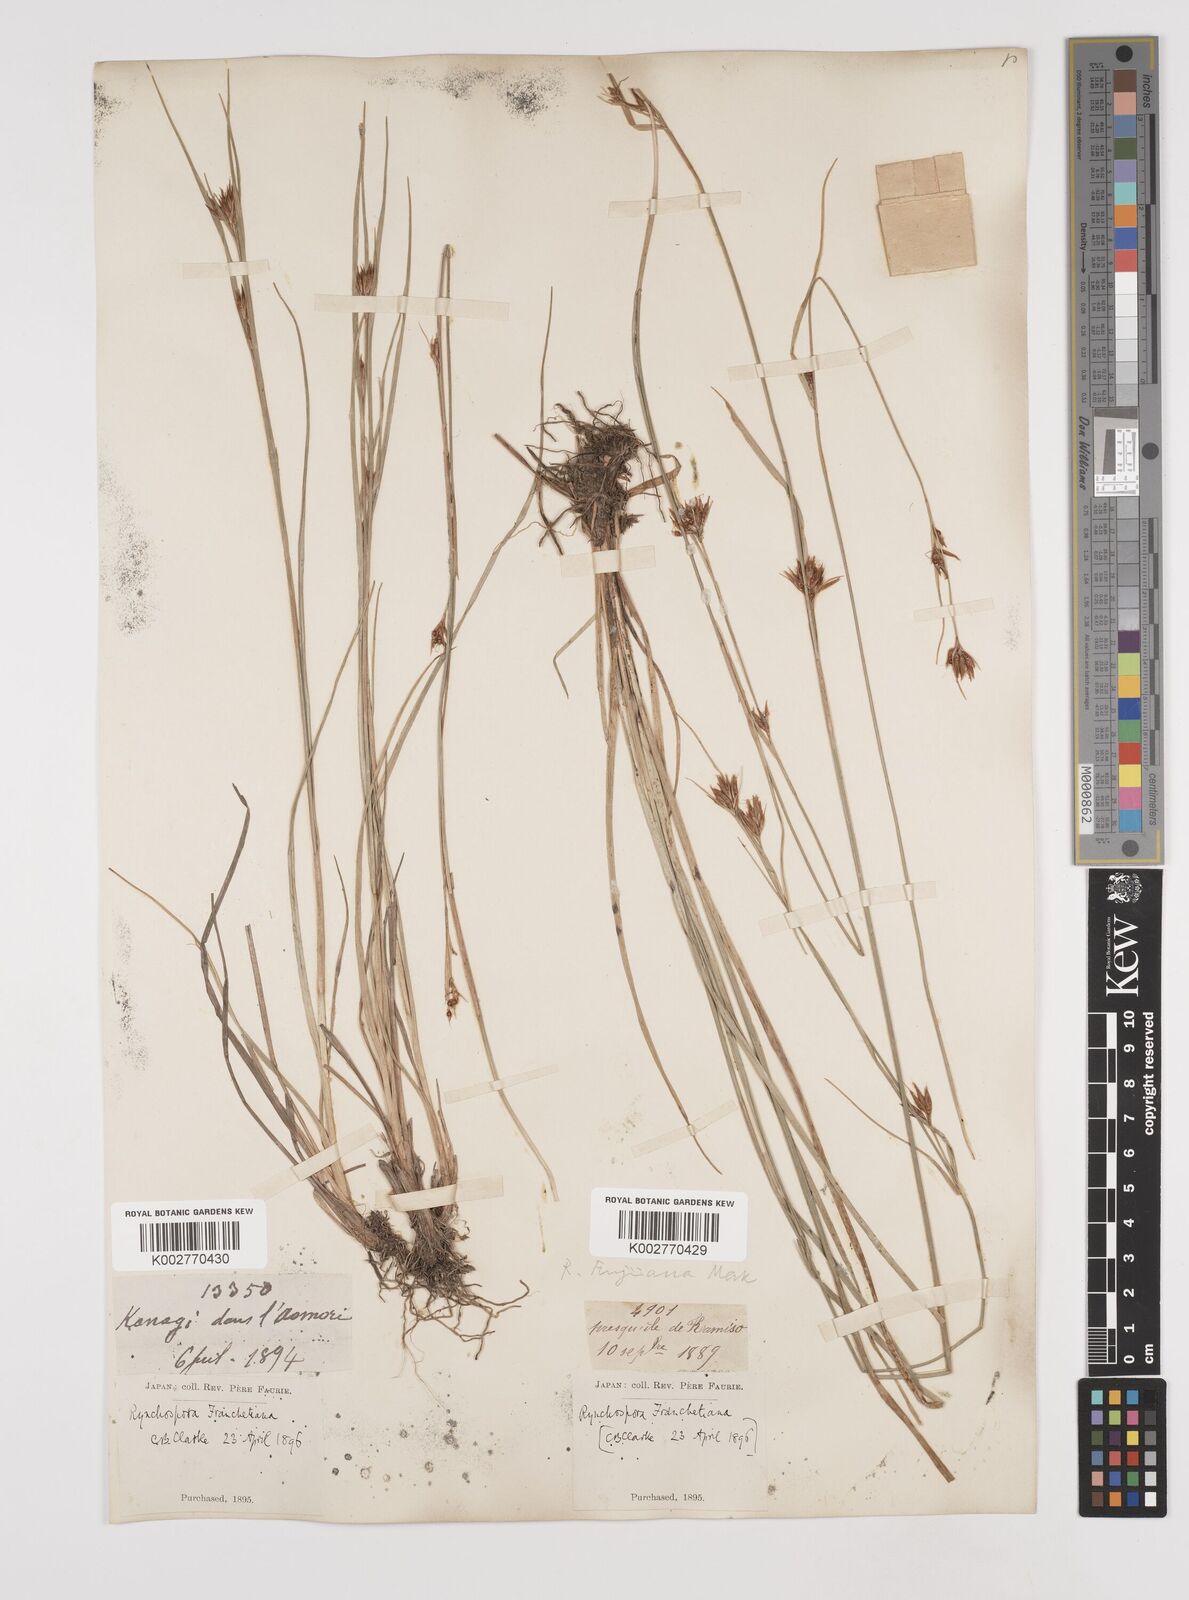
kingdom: Plantae
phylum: Tracheophyta
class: Liliopsida
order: Poales
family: Cyperaceae
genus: Rhynchospora
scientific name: Rhynchospora fujiiana
